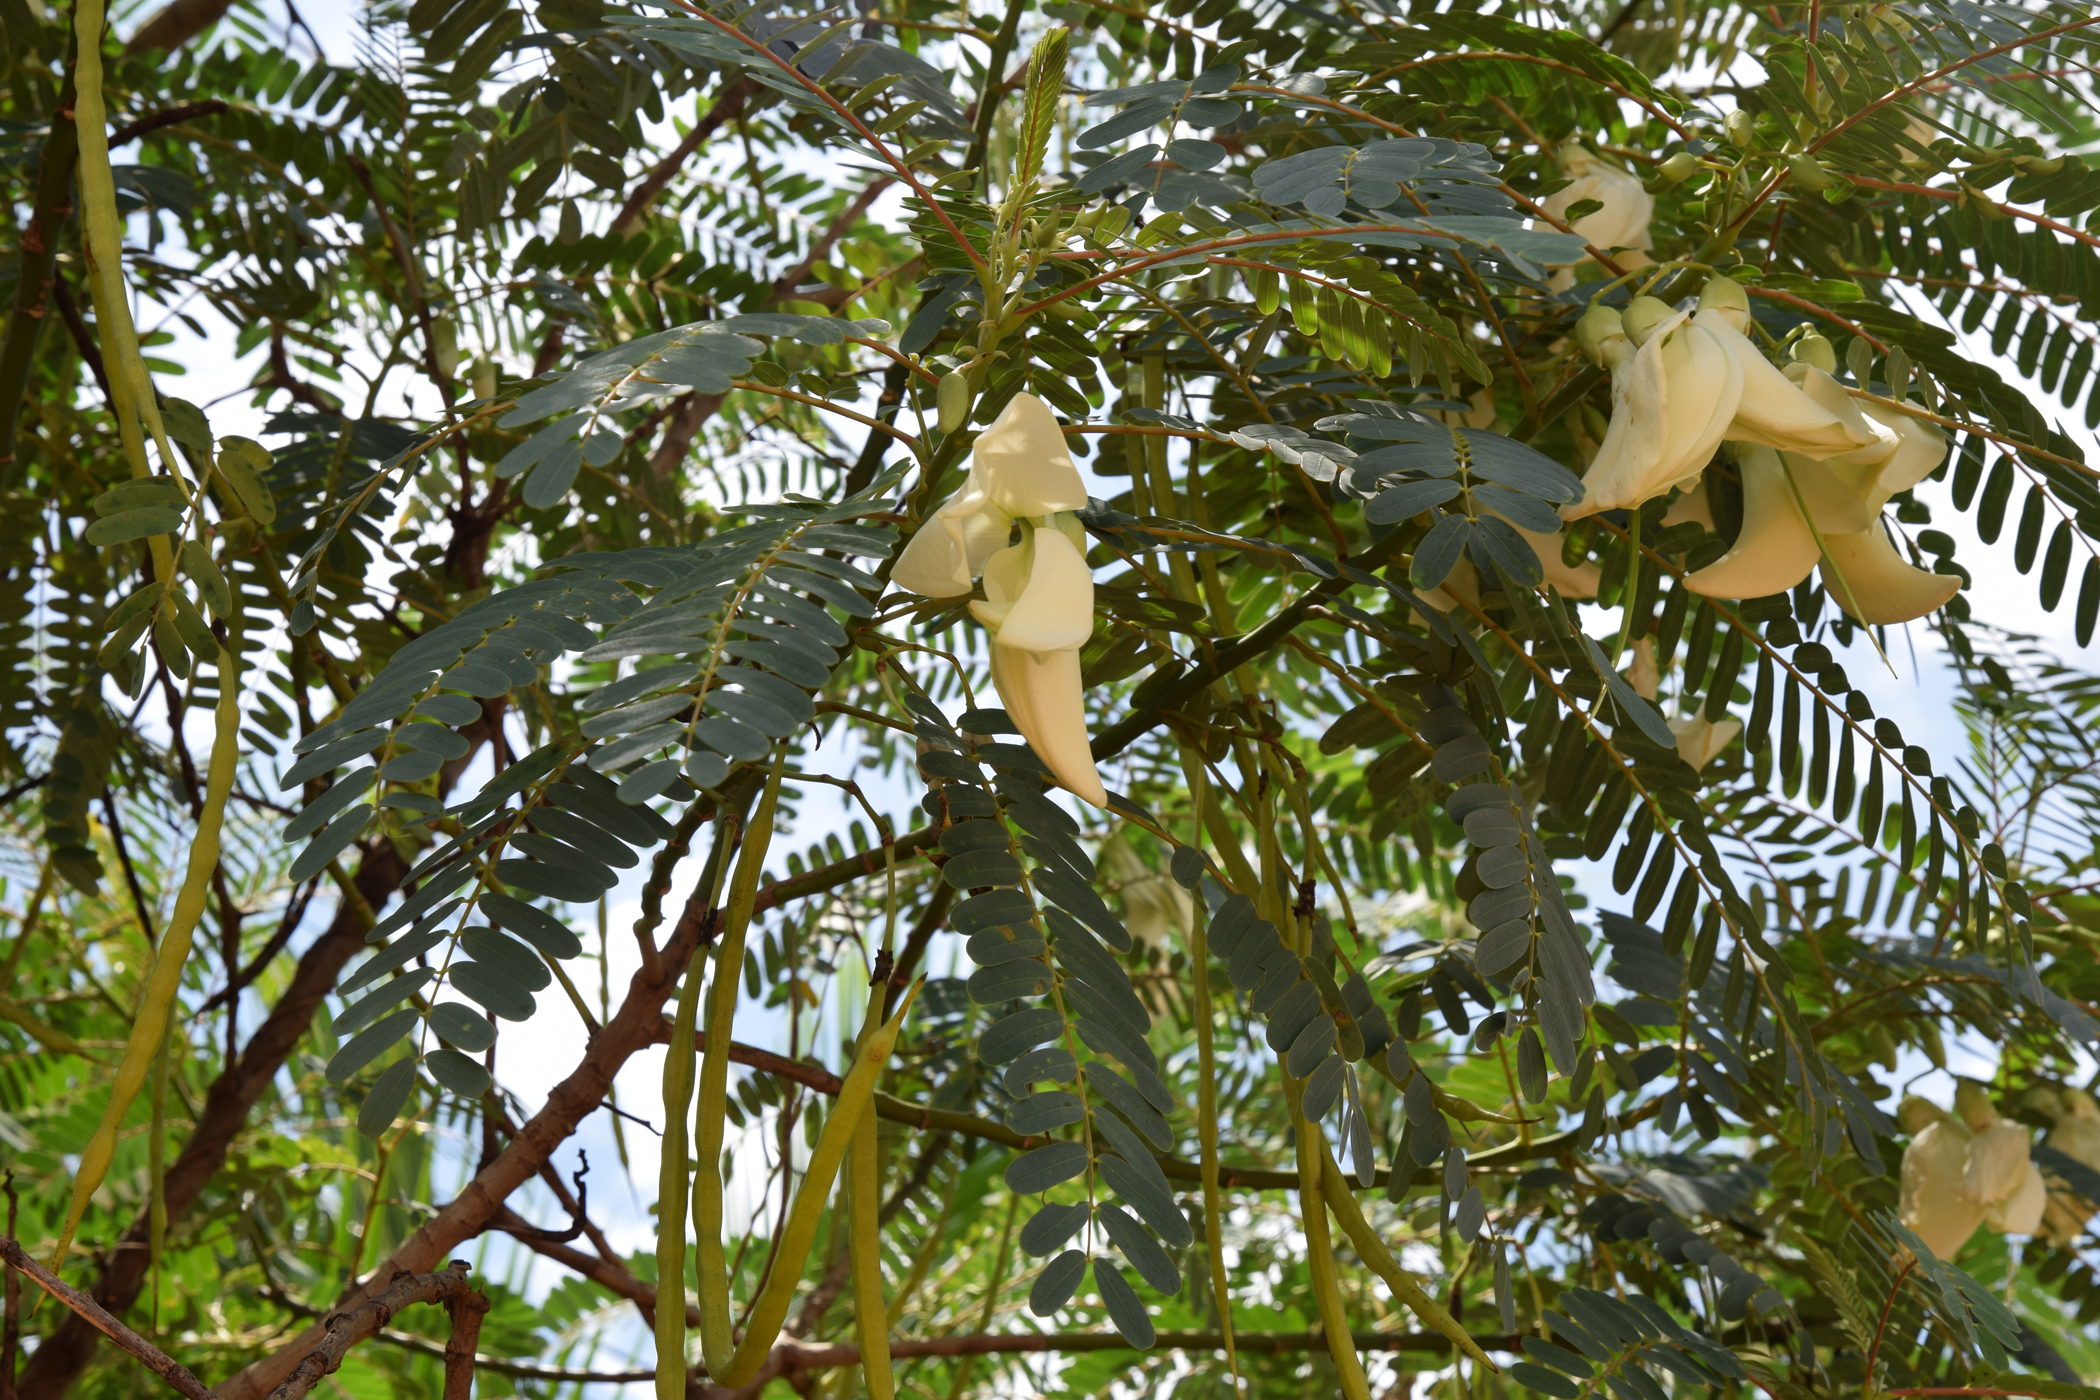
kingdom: Plantae
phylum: Tracheophyta
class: Magnoliopsida
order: Fabales
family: Fabaceae
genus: Sesbania
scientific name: Sesbania grandiflora
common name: Vegetable-hummingbird
